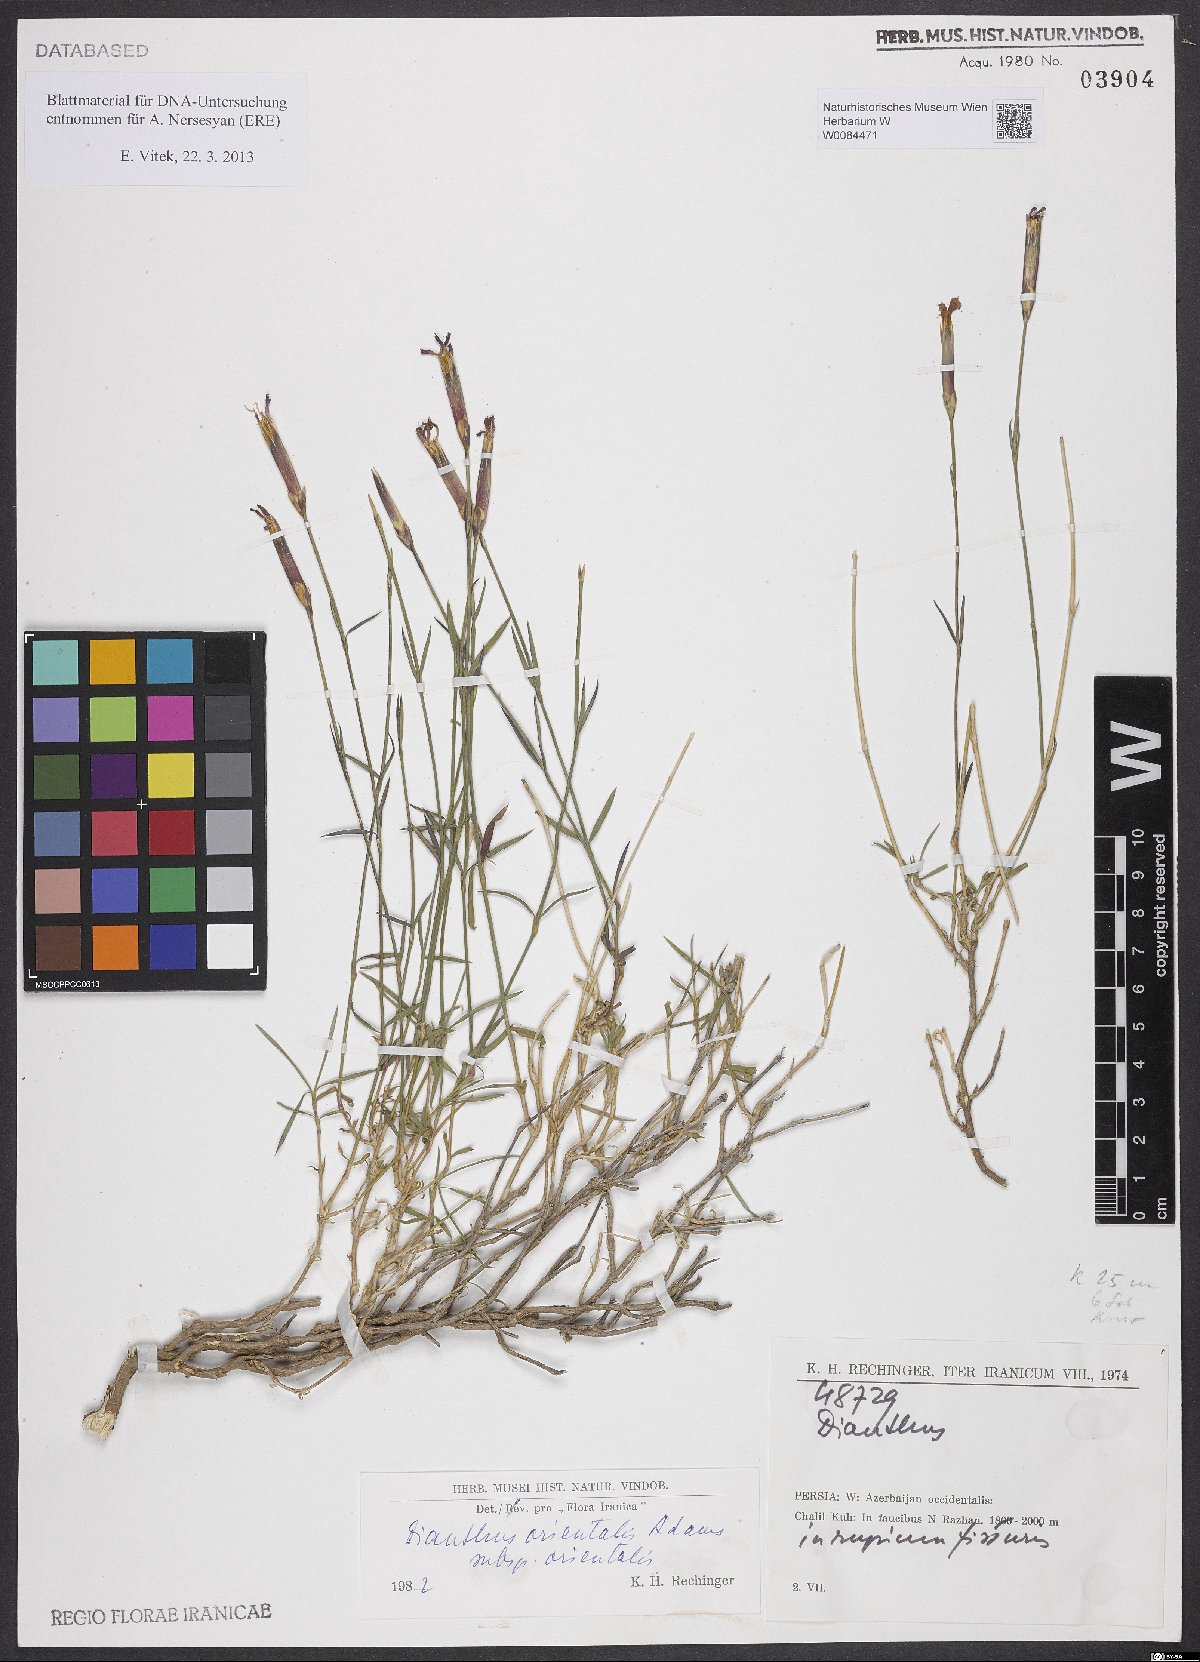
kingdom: Plantae
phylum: Tracheophyta
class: Magnoliopsida
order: Caryophyllales
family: Caryophyllaceae
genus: Dianthus
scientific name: Dianthus orientalis
